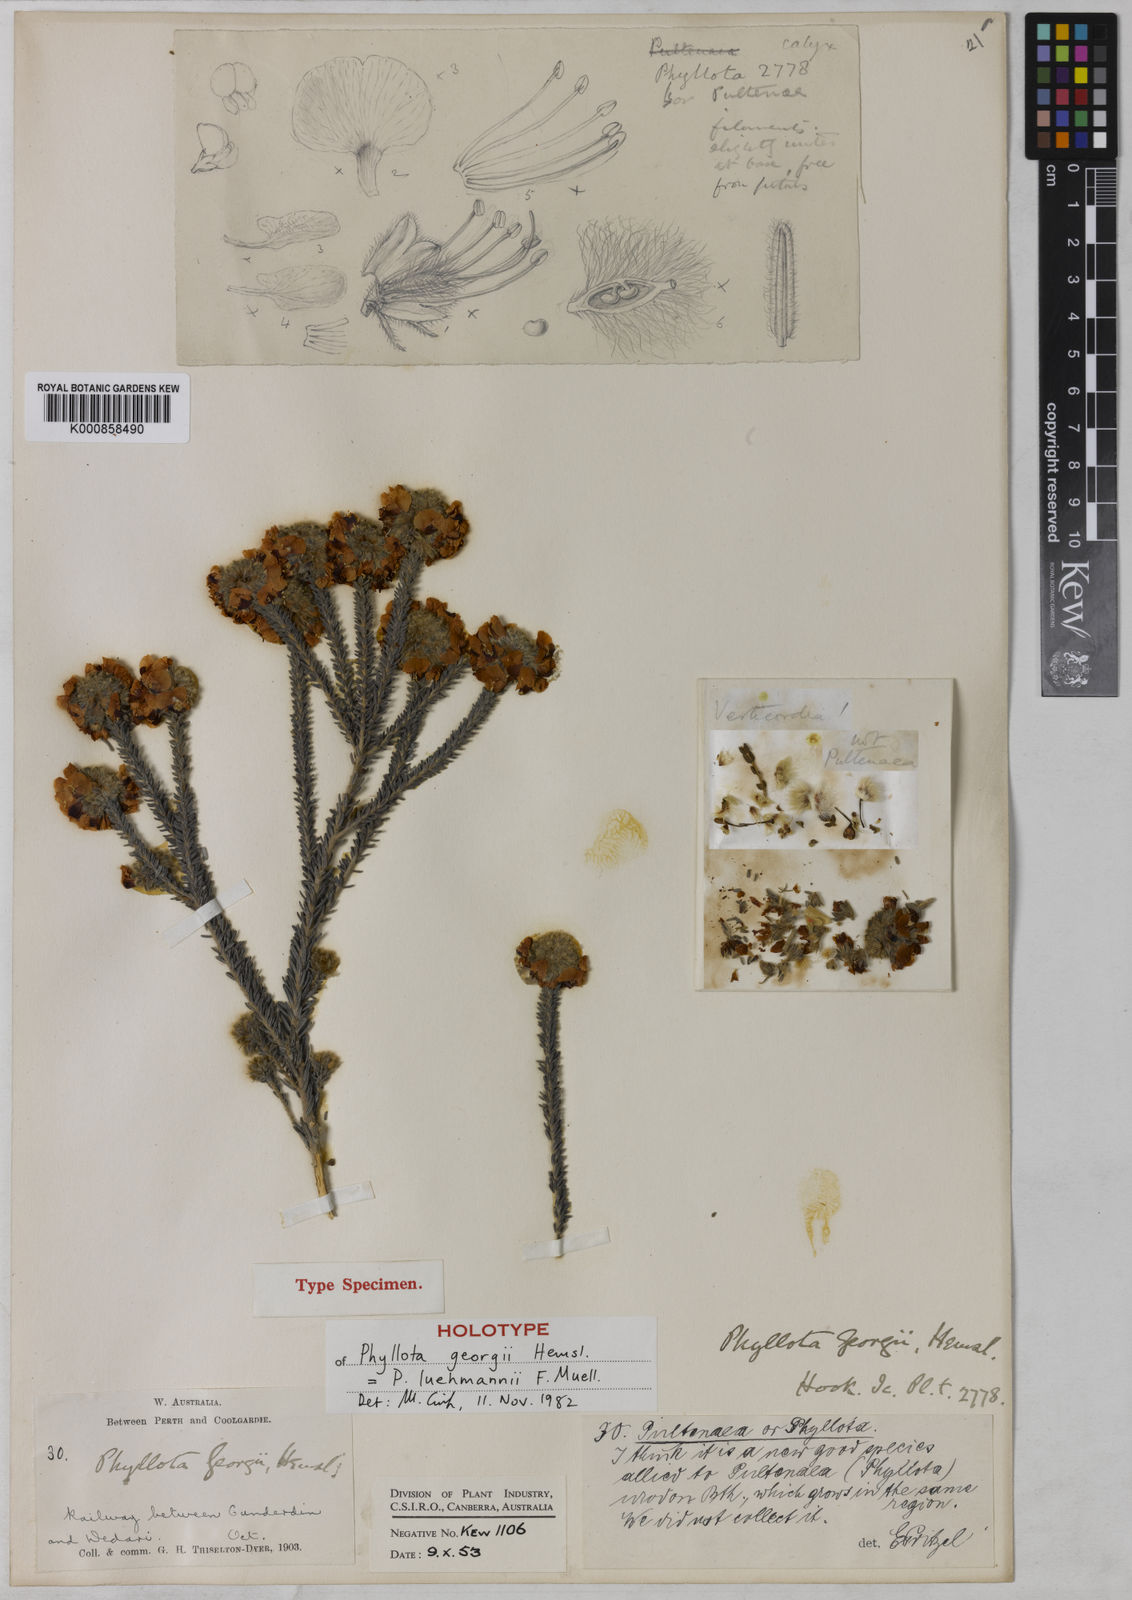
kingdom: Plantae
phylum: Tracheophyta
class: Magnoliopsida
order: Fabales
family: Fabaceae
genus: Phyllota
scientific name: Phyllota luehmannii
